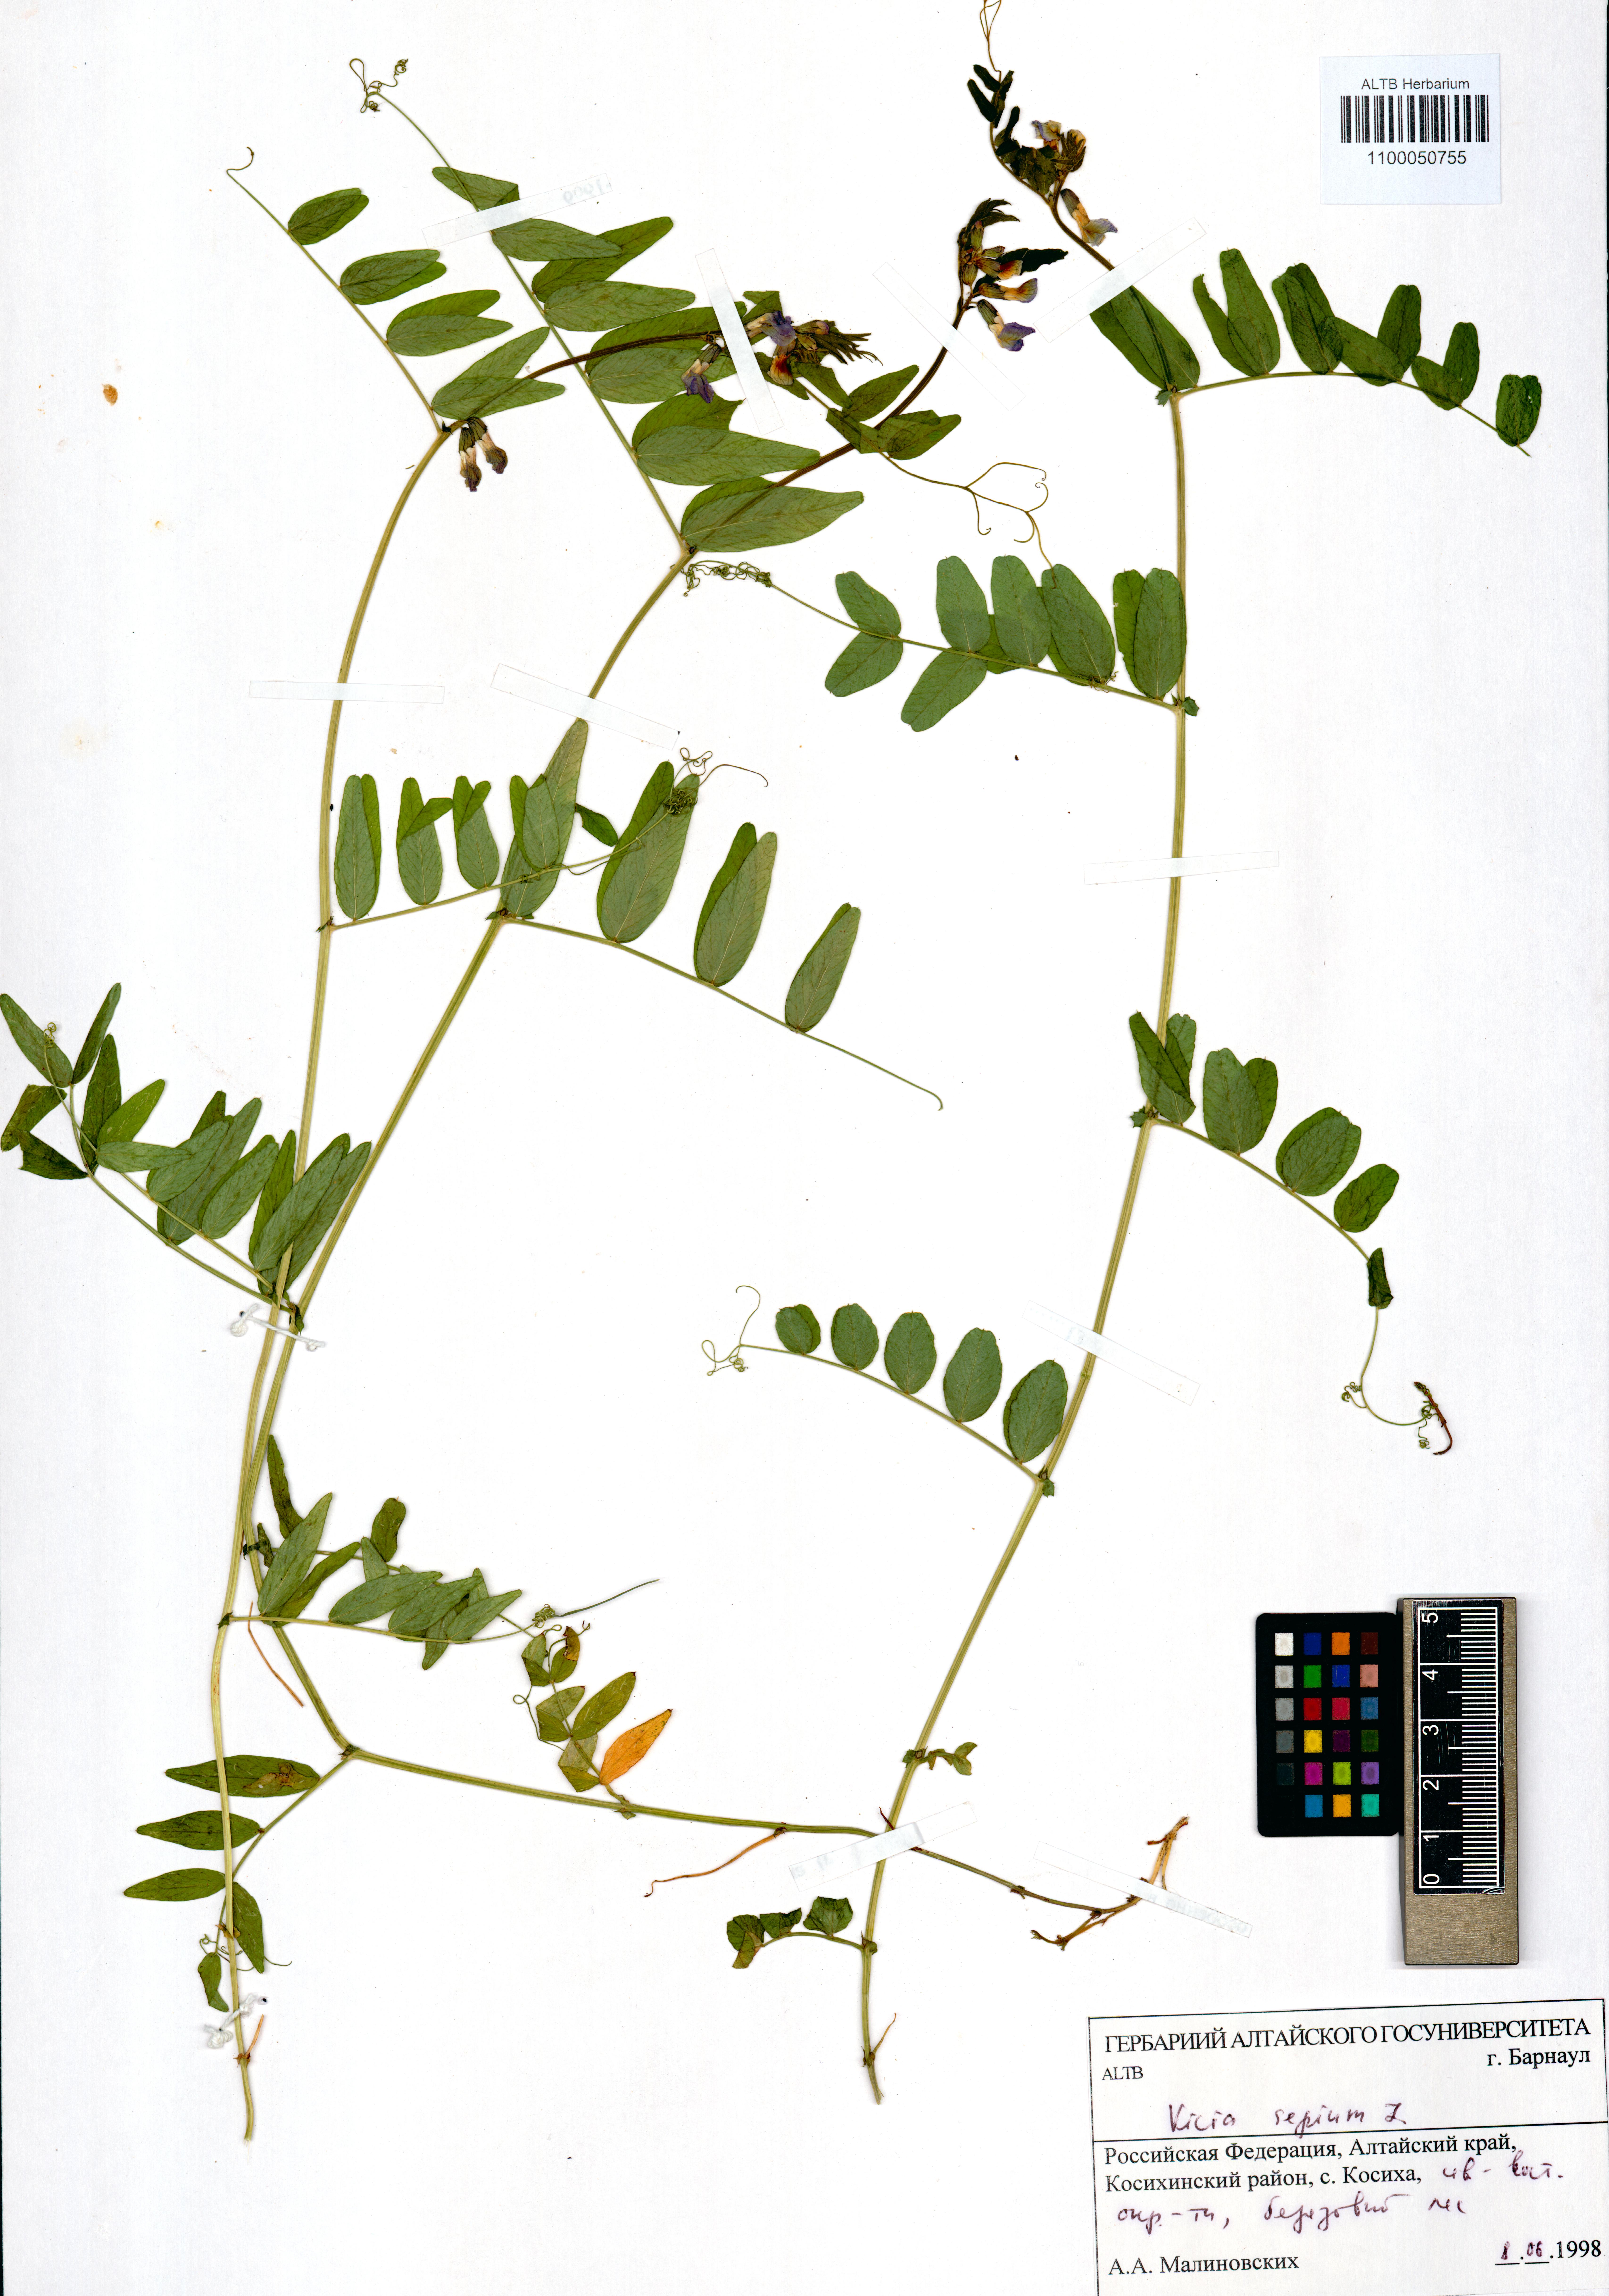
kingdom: Plantae
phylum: Tracheophyta
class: Magnoliopsida
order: Fabales
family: Fabaceae
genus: Vicia
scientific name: Vicia sepium
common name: Bush vetch
